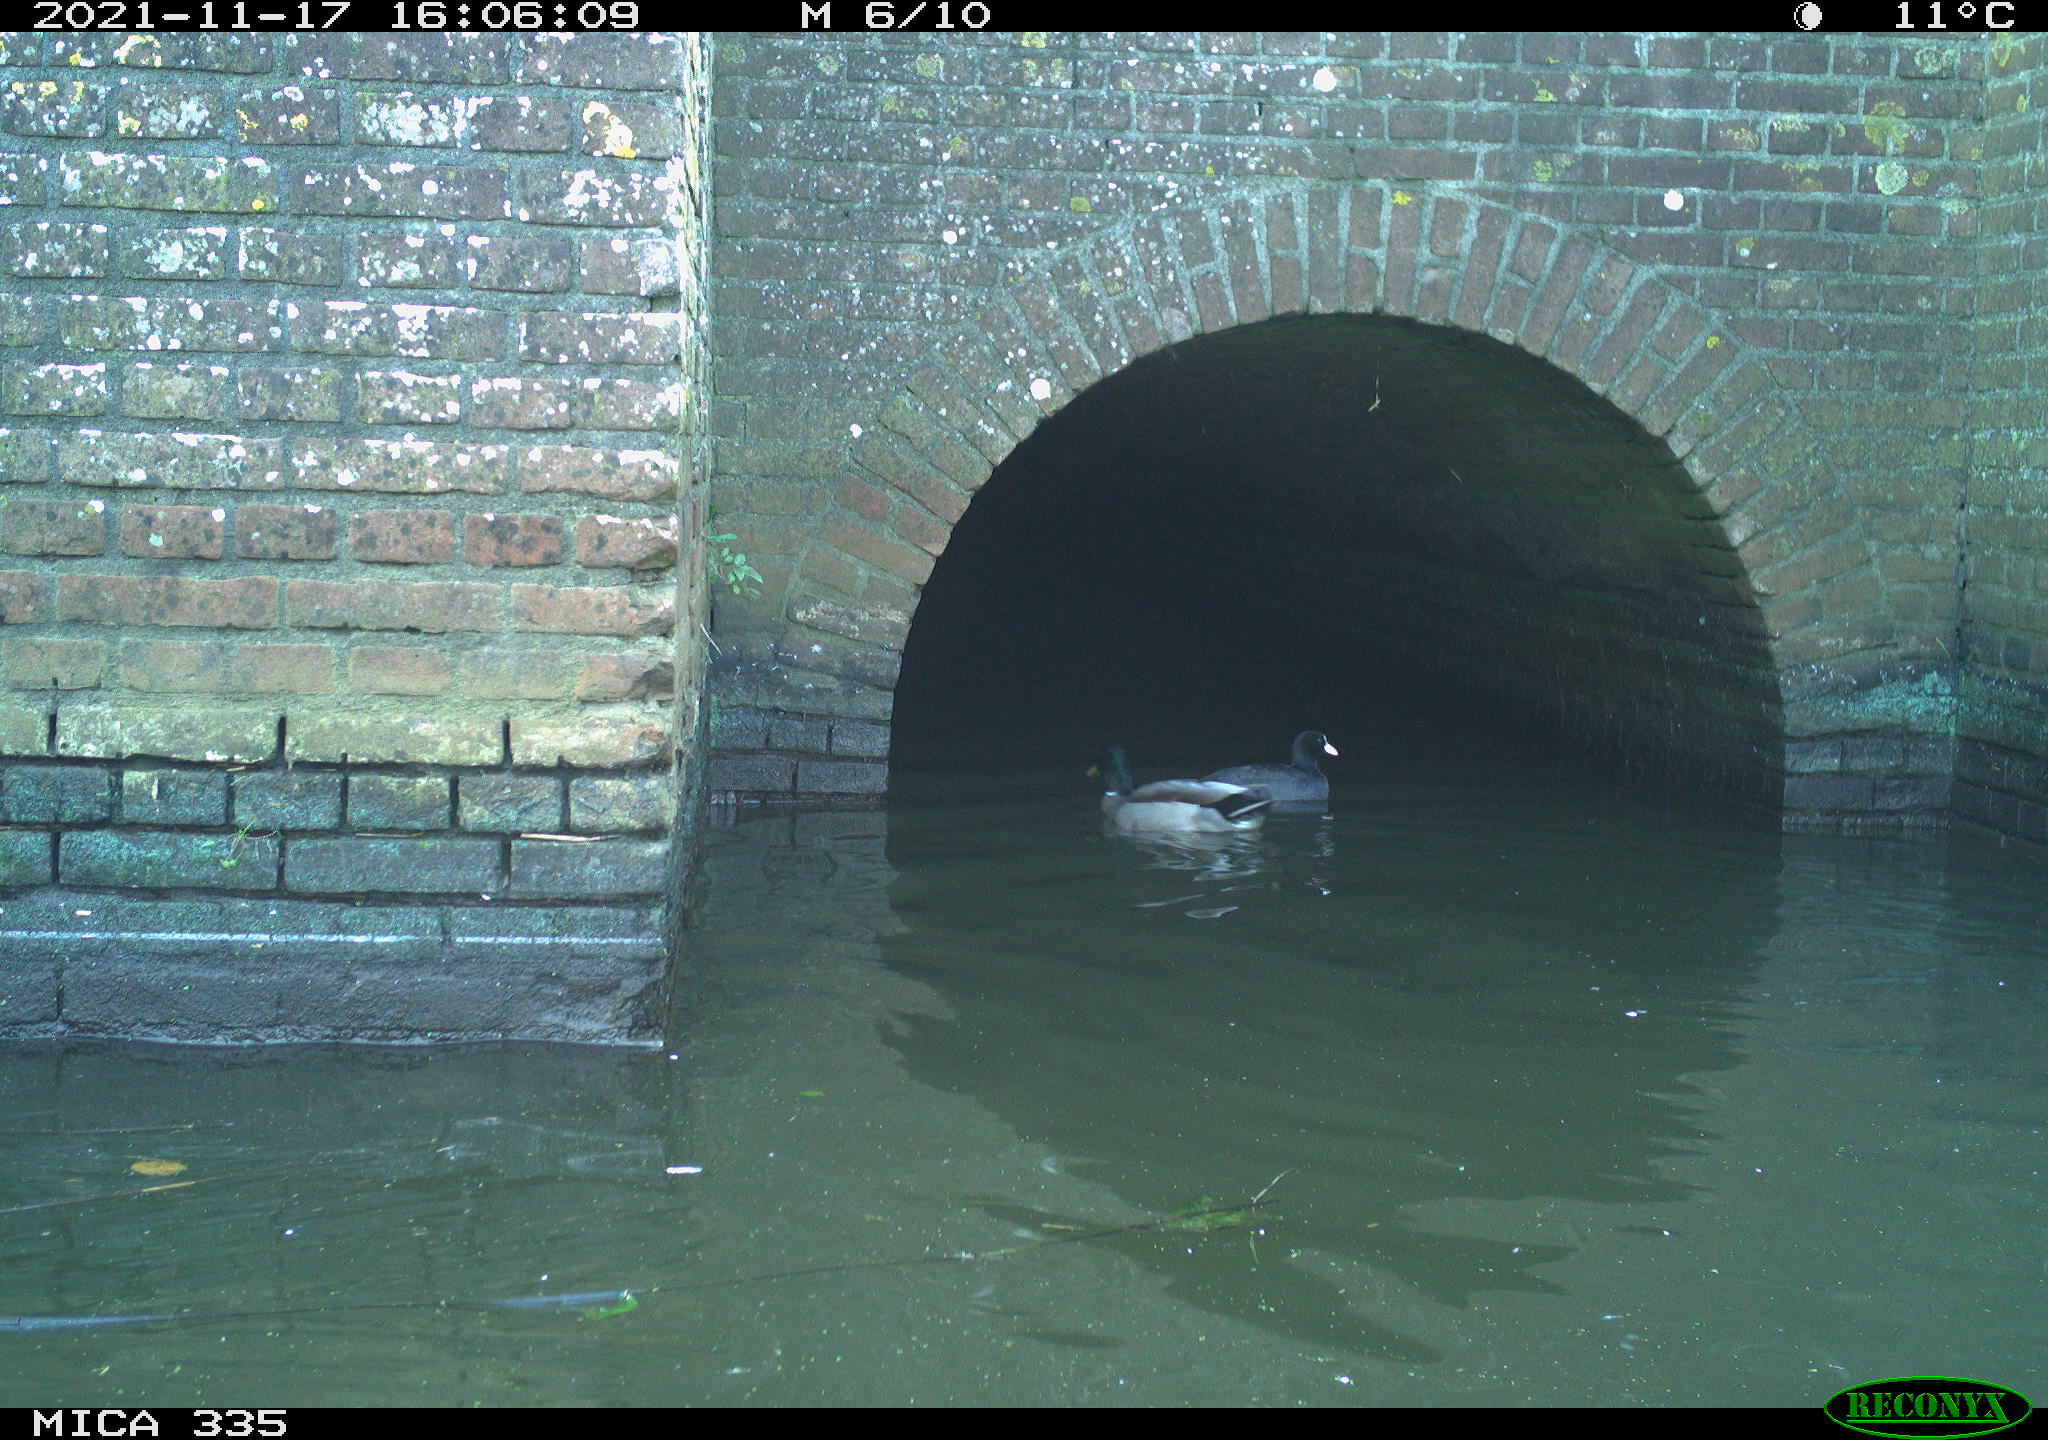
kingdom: Animalia
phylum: Chordata
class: Aves
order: Anseriformes
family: Anatidae
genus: Anas
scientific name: Anas platyrhynchos
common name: Mallard
